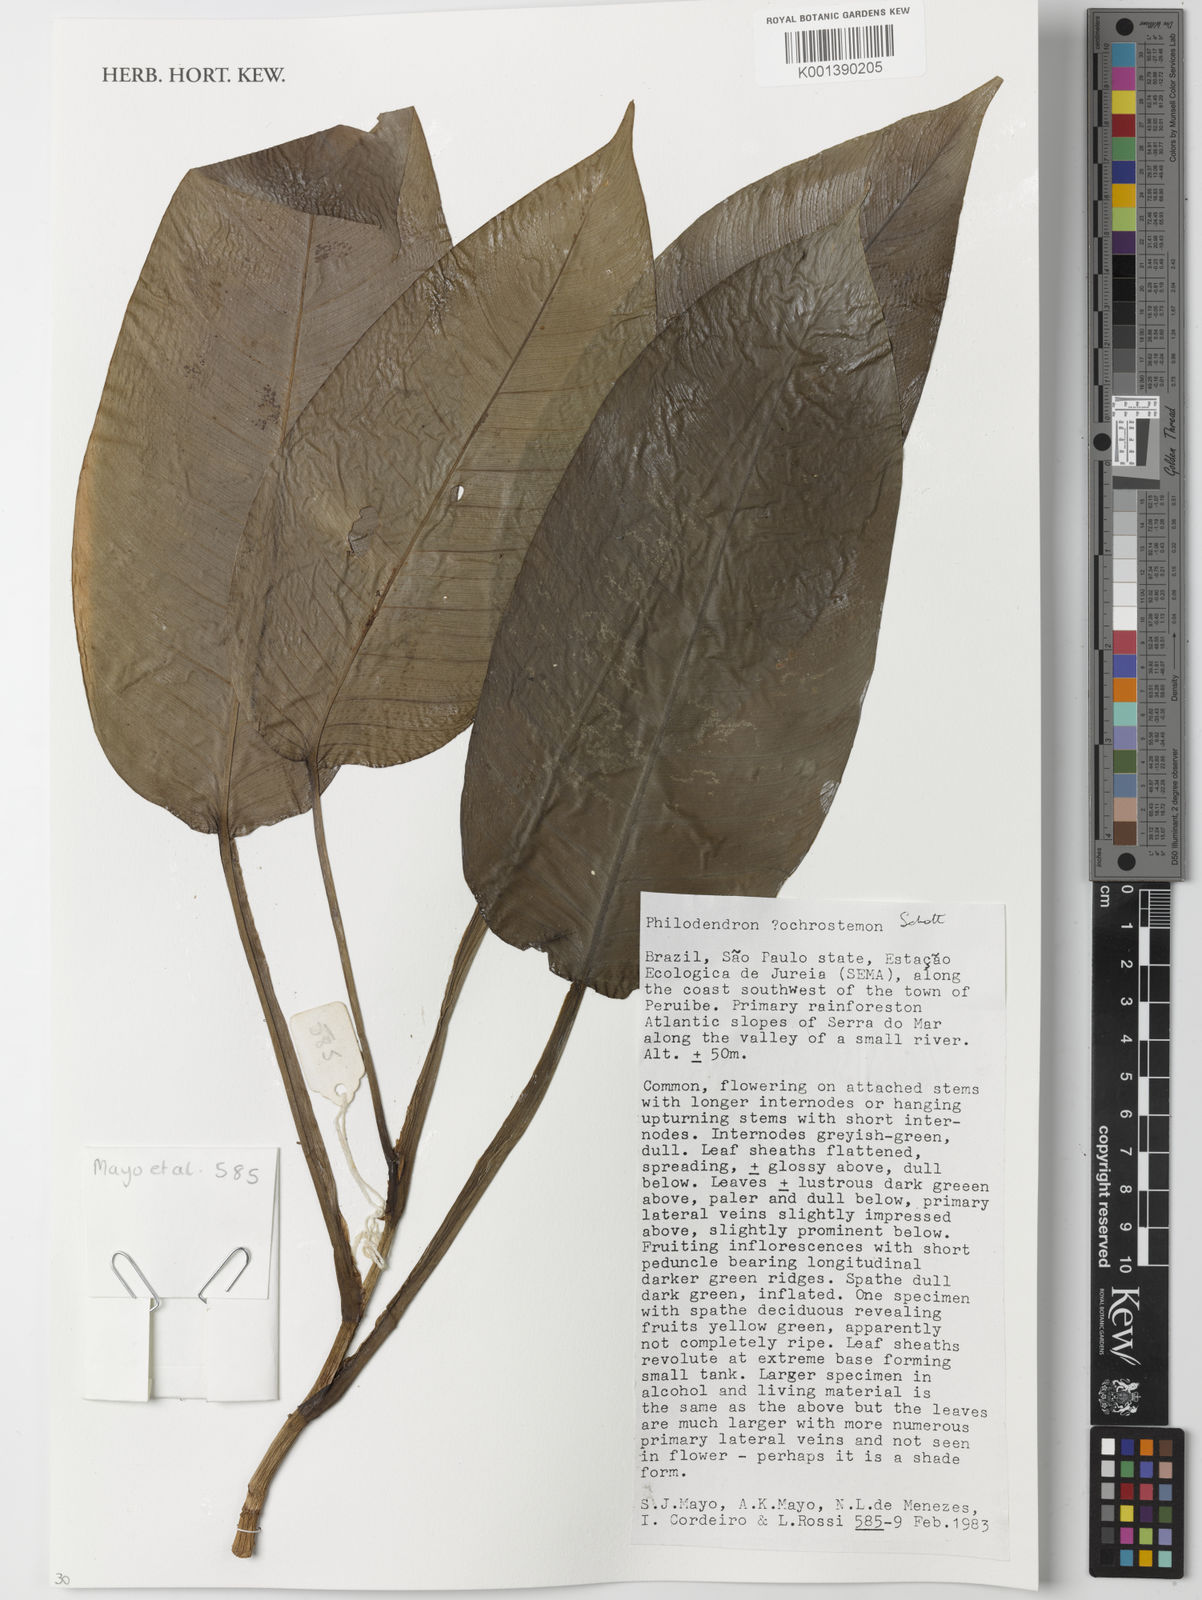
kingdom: Plantae
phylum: Tracheophyta
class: Liliopsida
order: Alismatales
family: Araceae
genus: Philodendron
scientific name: Philodendron ochrostemon
